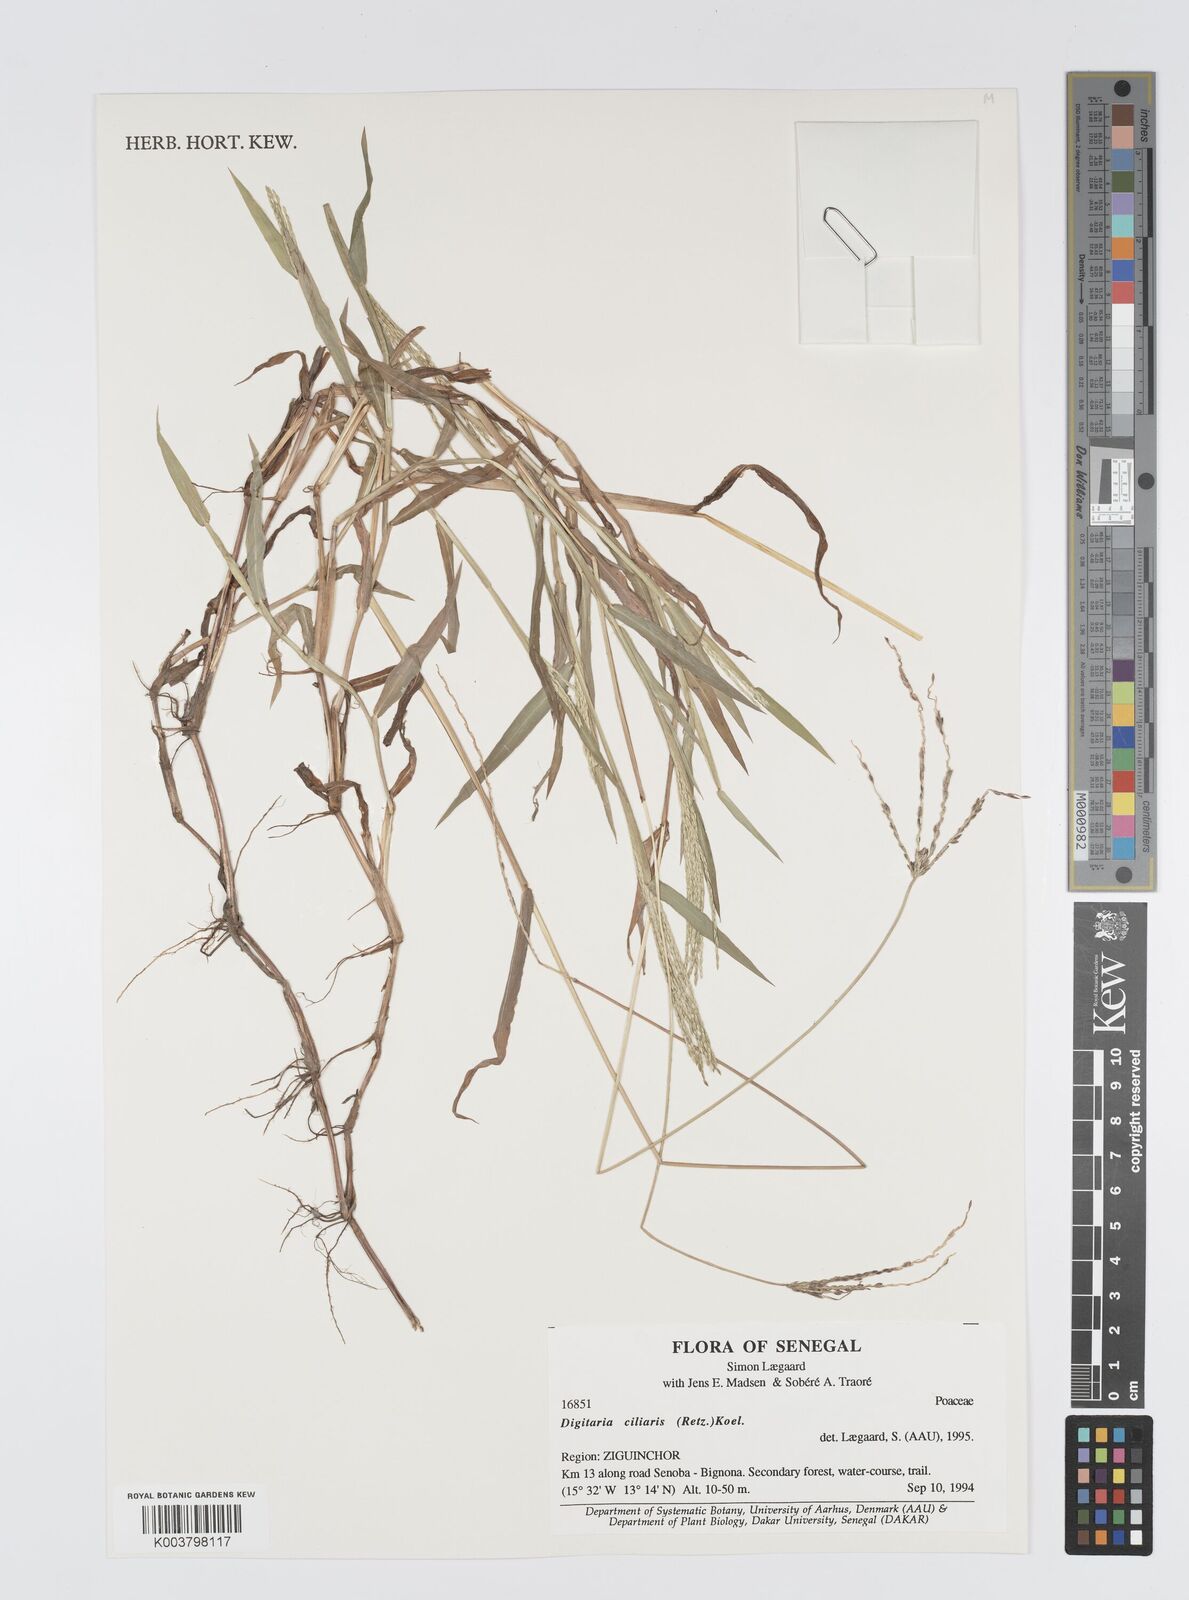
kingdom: Plantae
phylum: Tracheophyta
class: Liliopsida
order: Poales
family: Poaceae
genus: Digitaria
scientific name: Digitaria
